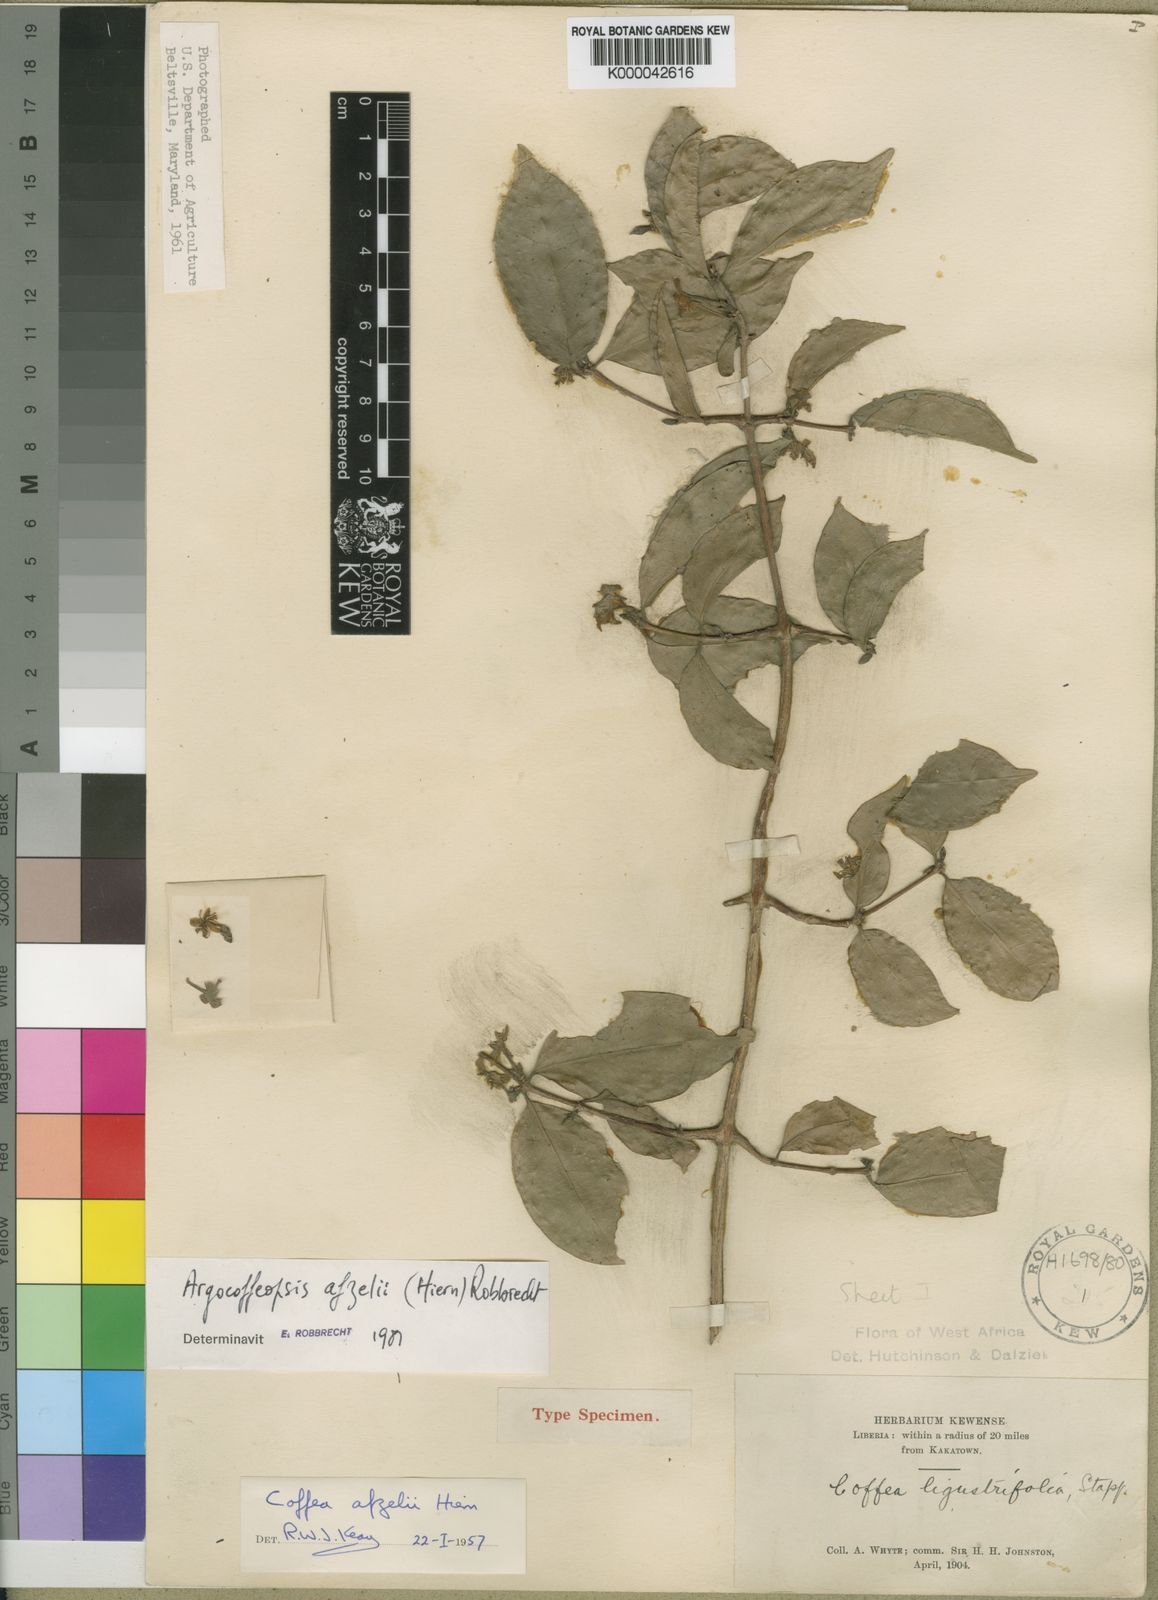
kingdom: Plantae
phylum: Tracheophyta
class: Magnoliopsida
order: Gentianales
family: Rubiaceae
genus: Argocoffeopsis
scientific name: Argocoffeopsis afzelii
